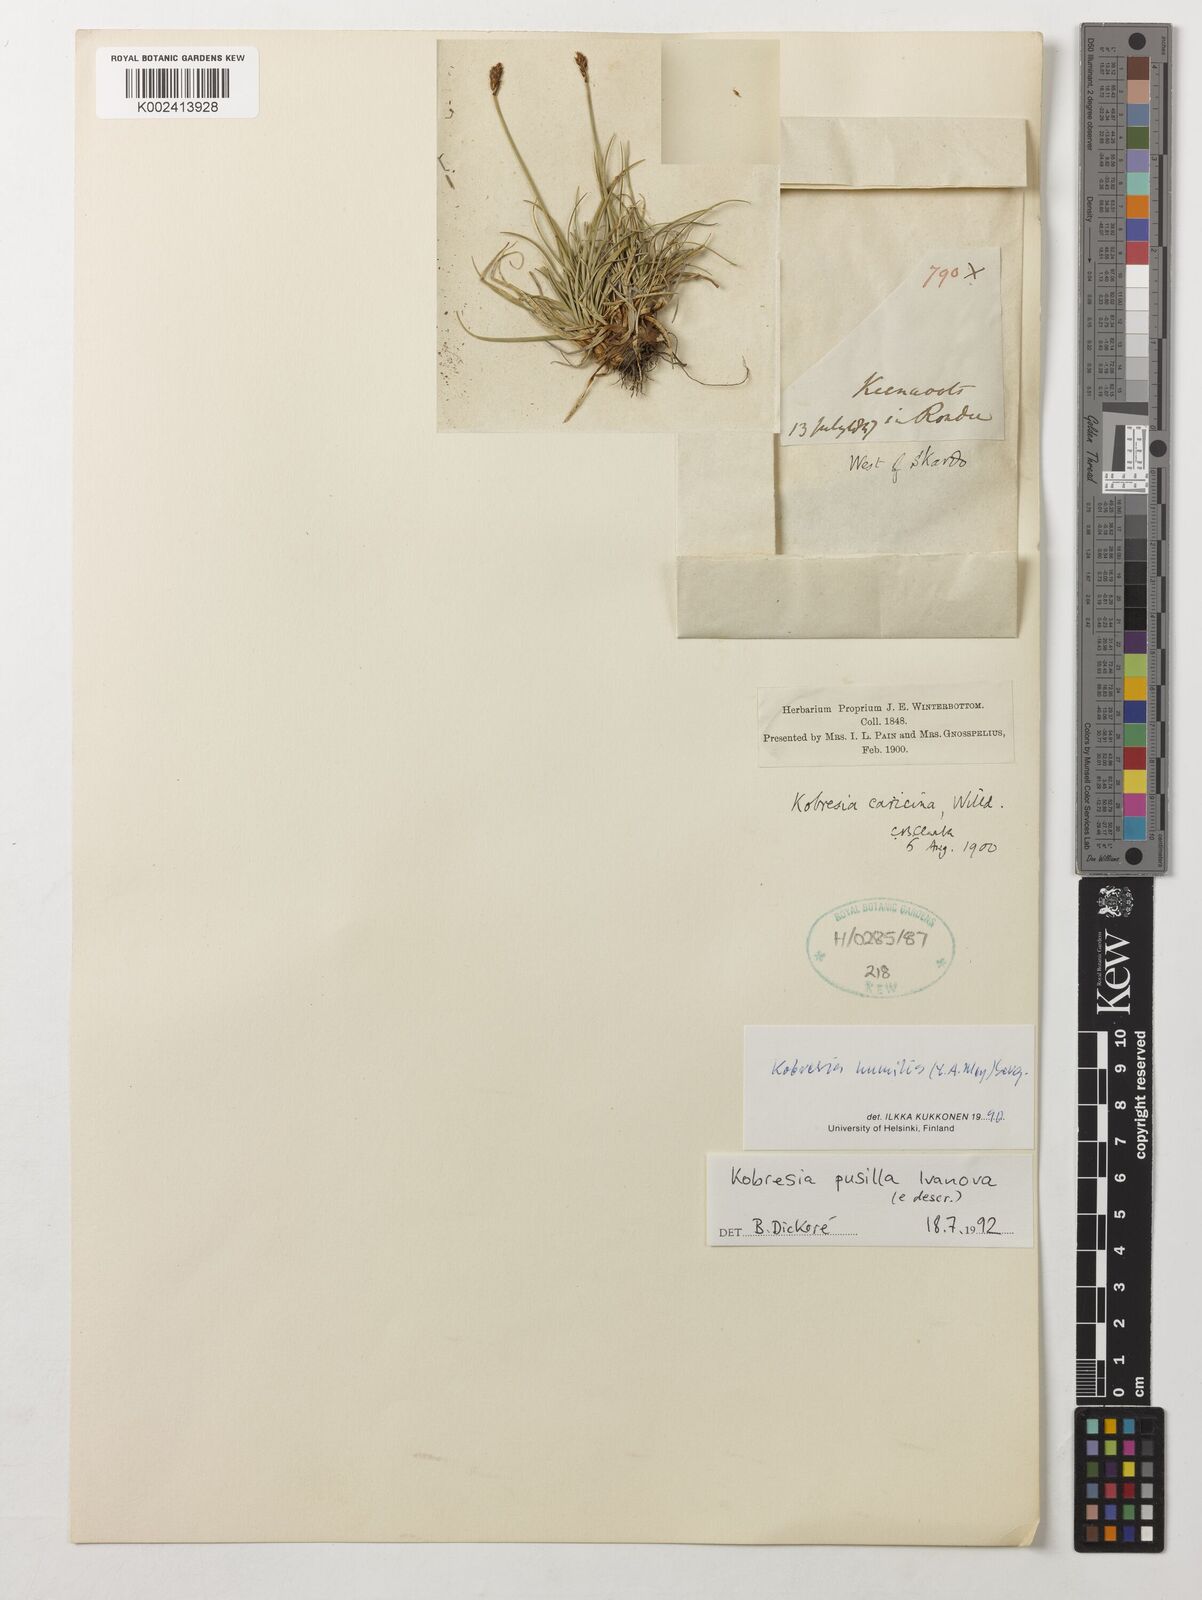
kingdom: Plantae
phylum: Tracheophyta
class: Liliopsida
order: Poales
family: Cyperaceae
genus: Carex
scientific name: Carex coninux
